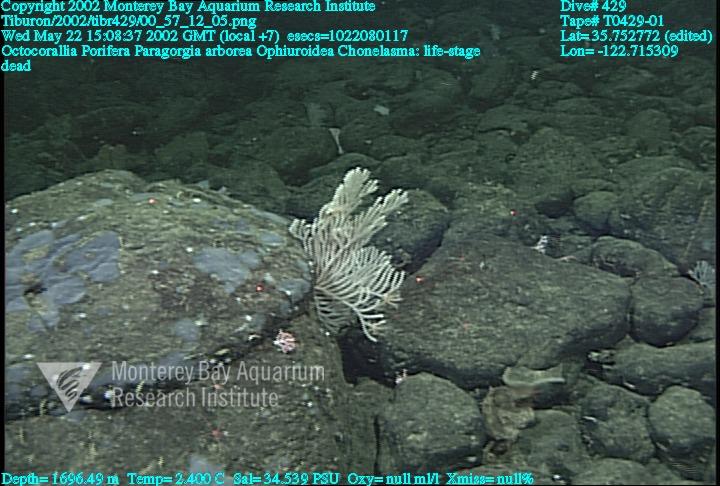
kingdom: Animalia
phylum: Porifera
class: Hexactinellida
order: Sceptrulophora
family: Euretidae
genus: Chonelasma
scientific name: Chonelasma
